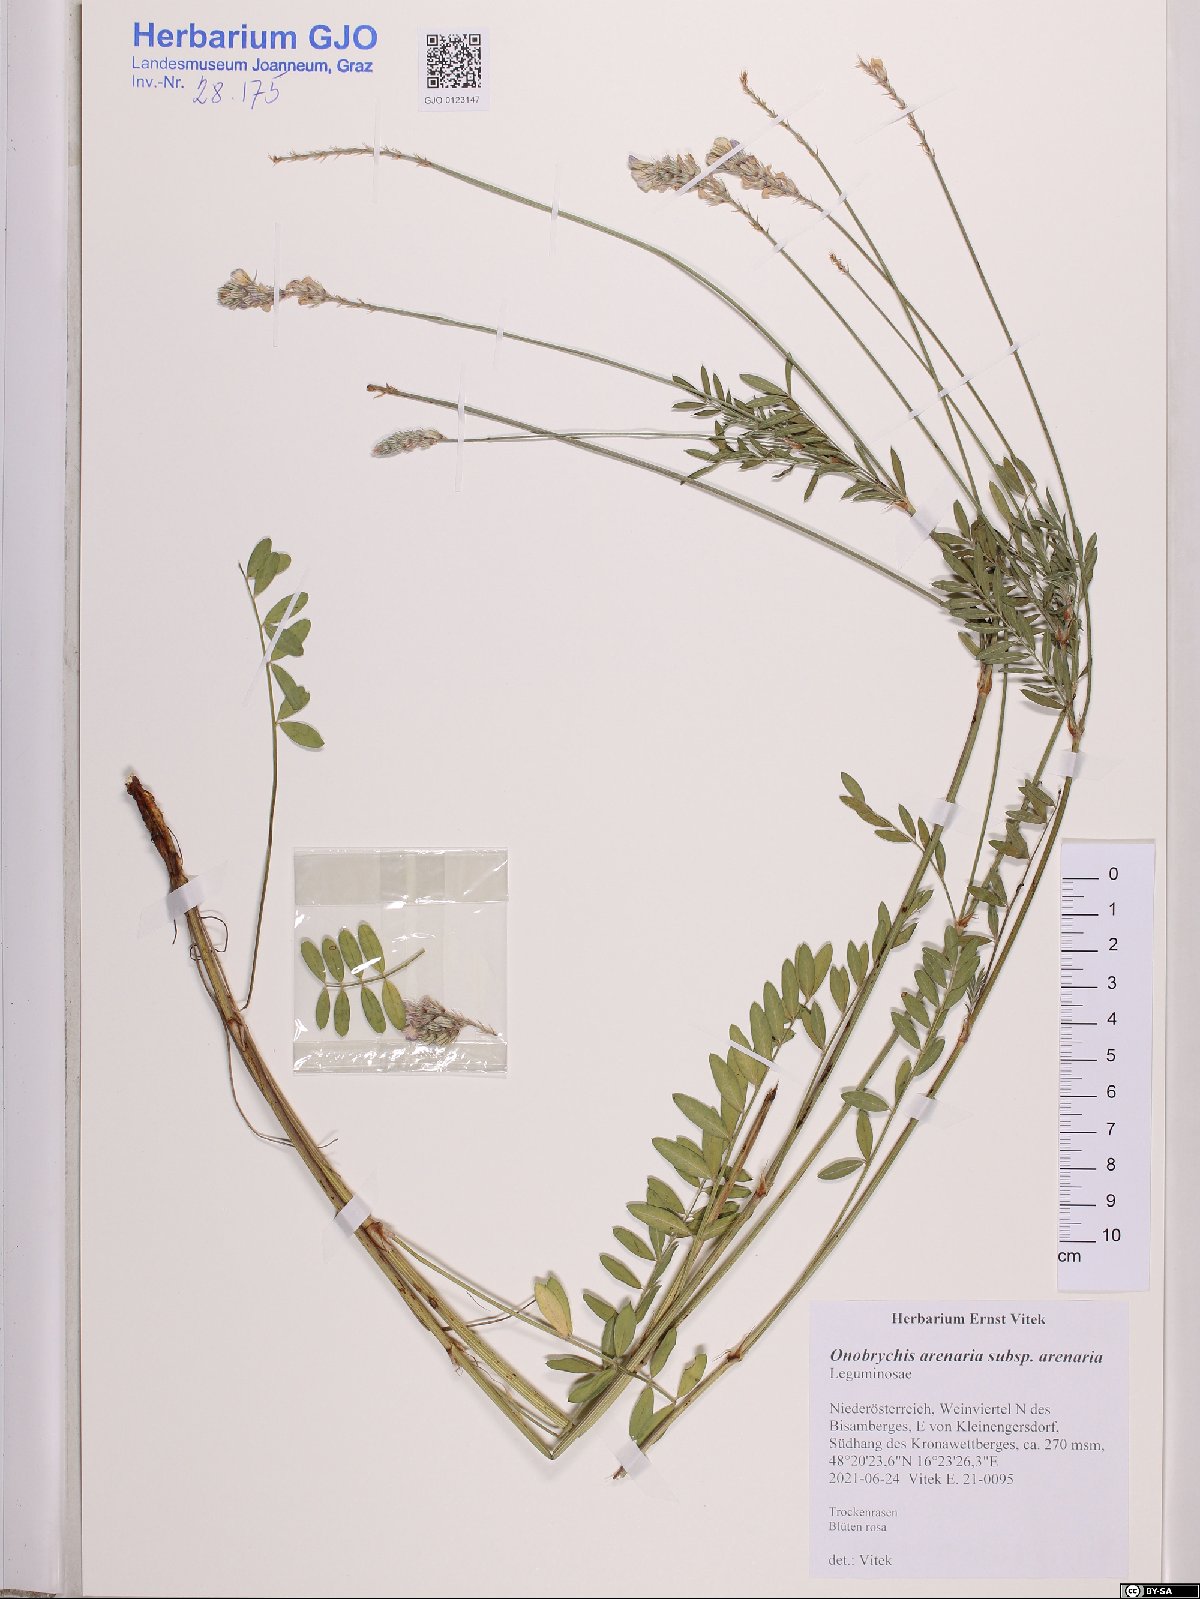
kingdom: Plantae
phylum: Tracheophyta
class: Magnoliopsida
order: Fabales
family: Fabaceae
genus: Onobrychis
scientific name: Onobrychis arenaria
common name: Sand esparcet
